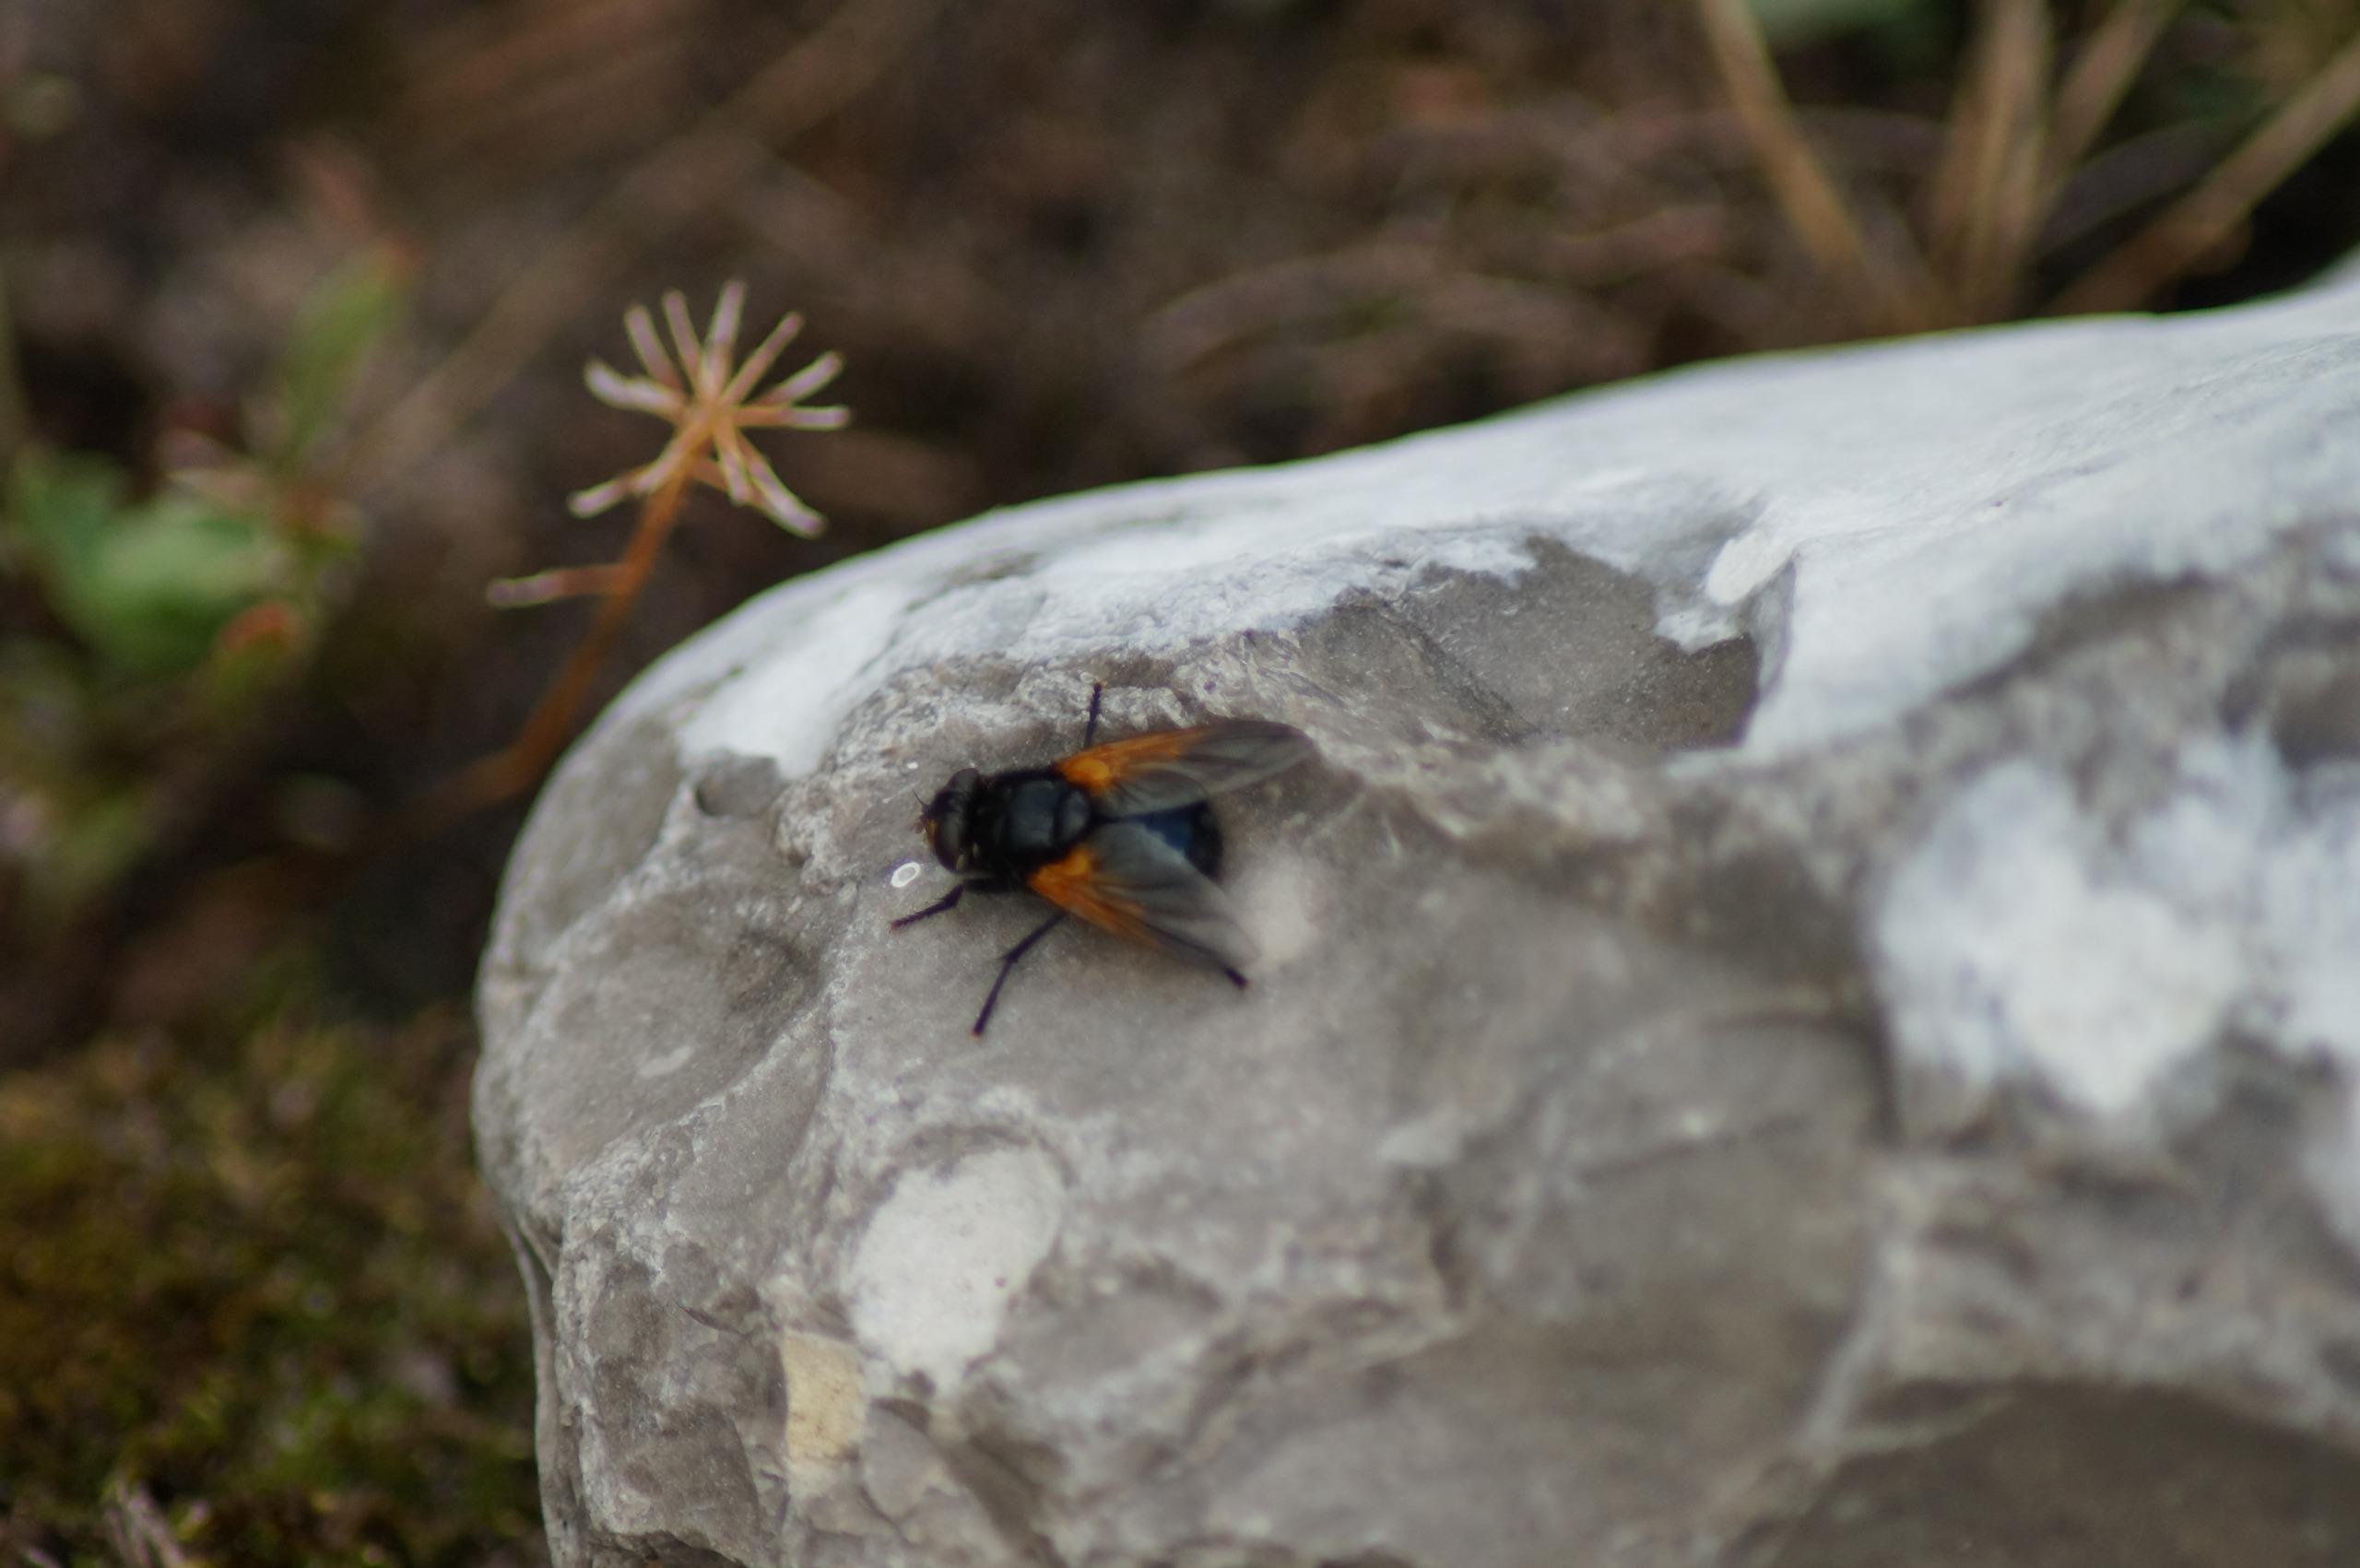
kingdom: Animalia
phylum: Arthropoda
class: Insecta
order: Diptera
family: Muscidae
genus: Mesembrina
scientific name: Mesembrina meridiana
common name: Gulvinget flue
